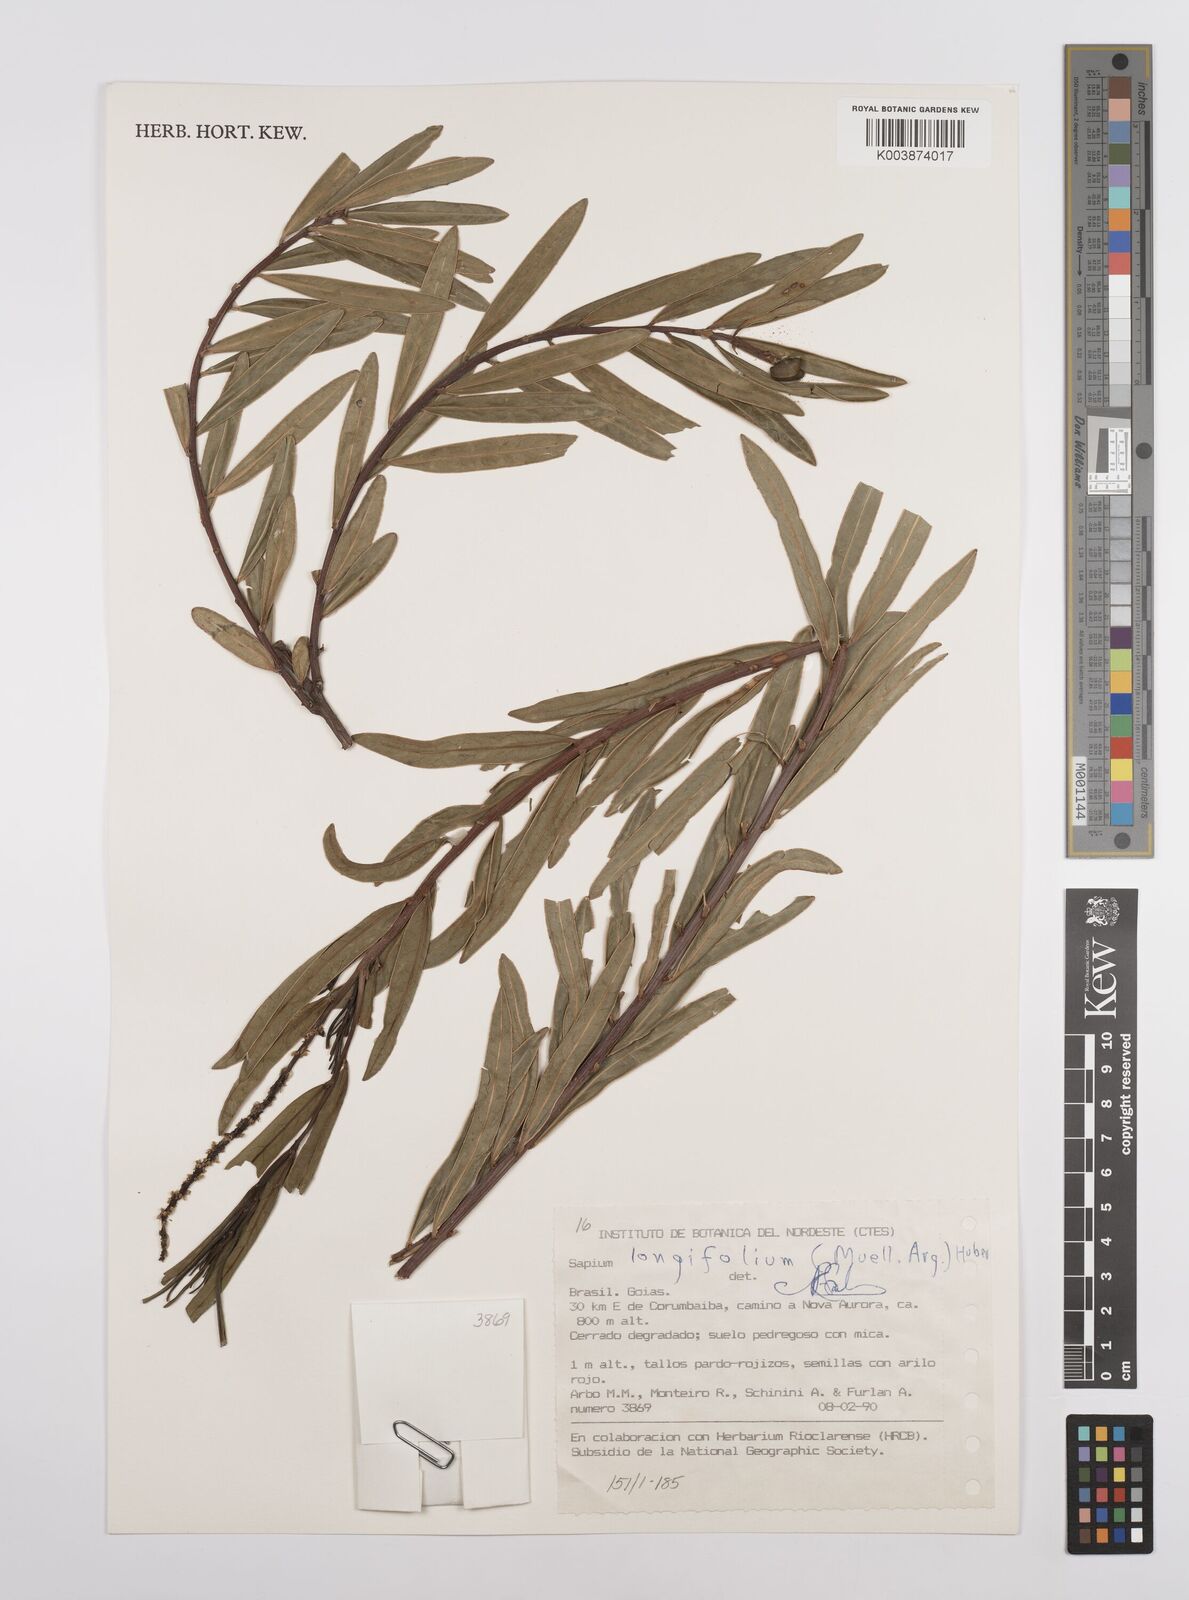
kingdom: Plantae
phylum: Tracheophyta
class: Magnoliopsida
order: Malpighiales
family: Euphorbiaceae
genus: Sapium
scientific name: Sapium haematospermum
